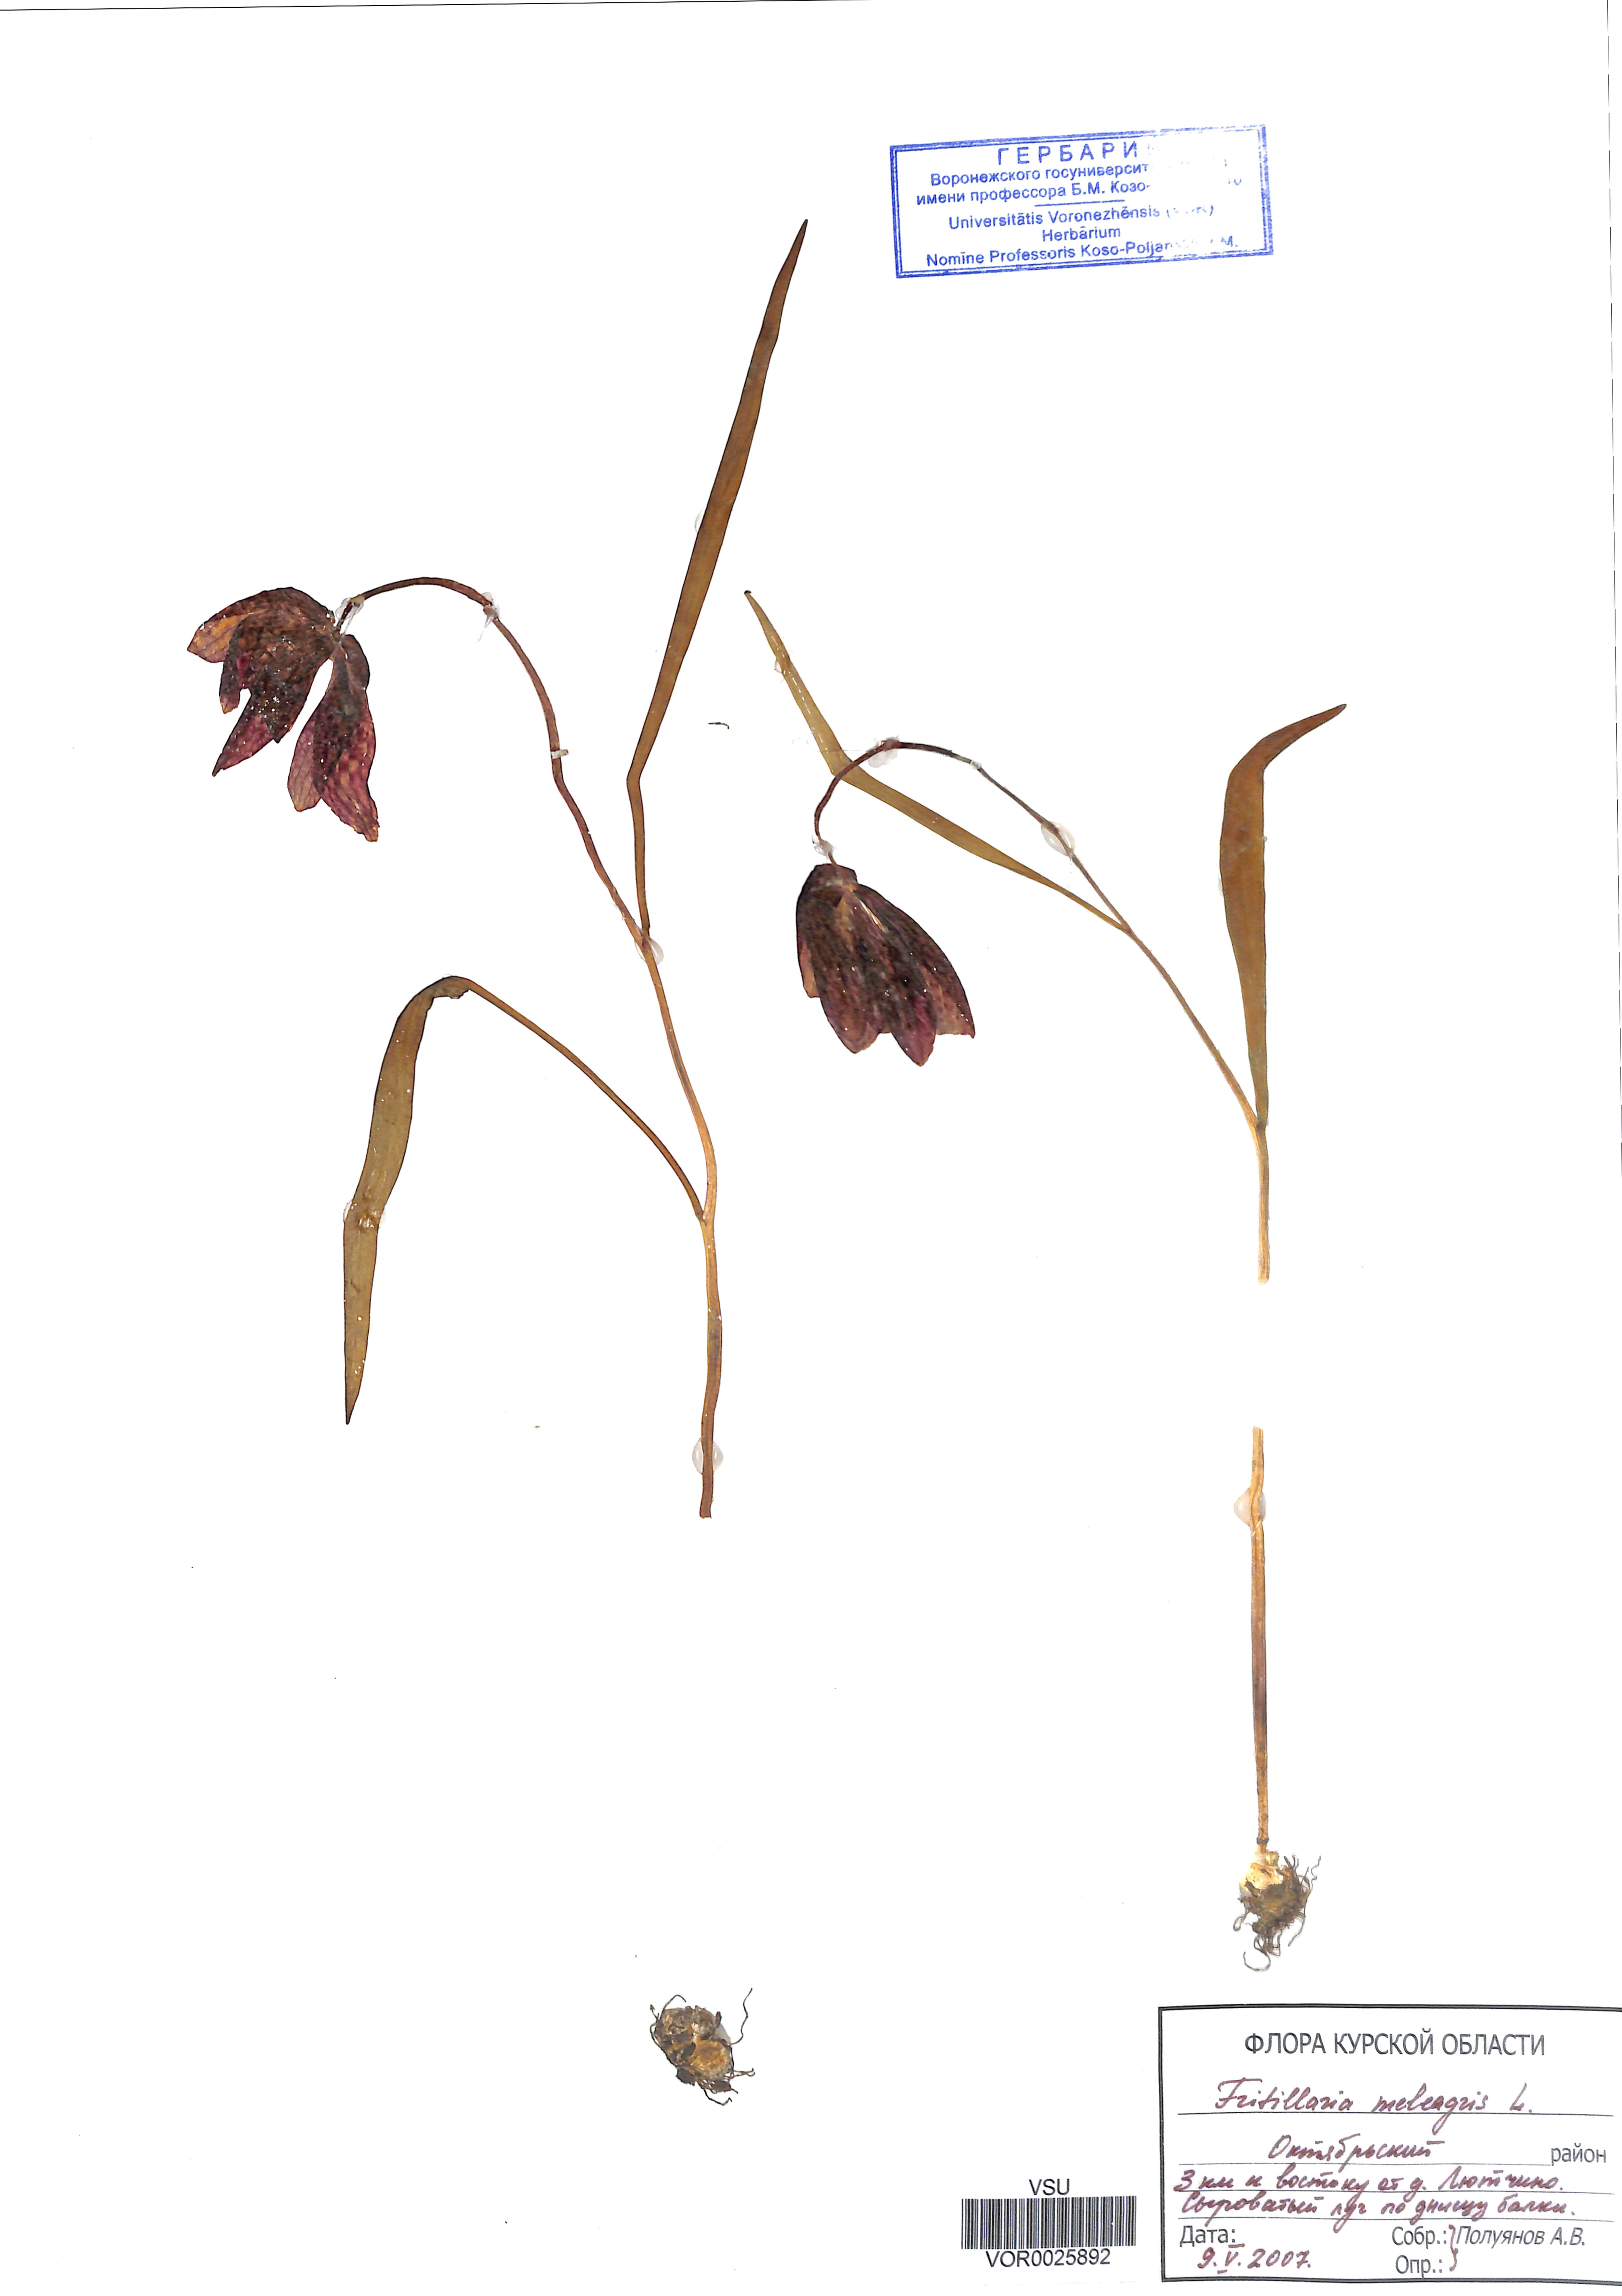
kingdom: Plantae
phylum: Tracheophyta
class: Liliopsida
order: Liliales
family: Liliaceae
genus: Fritillaria
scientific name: Fritillaria meleagris
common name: Fritillary
